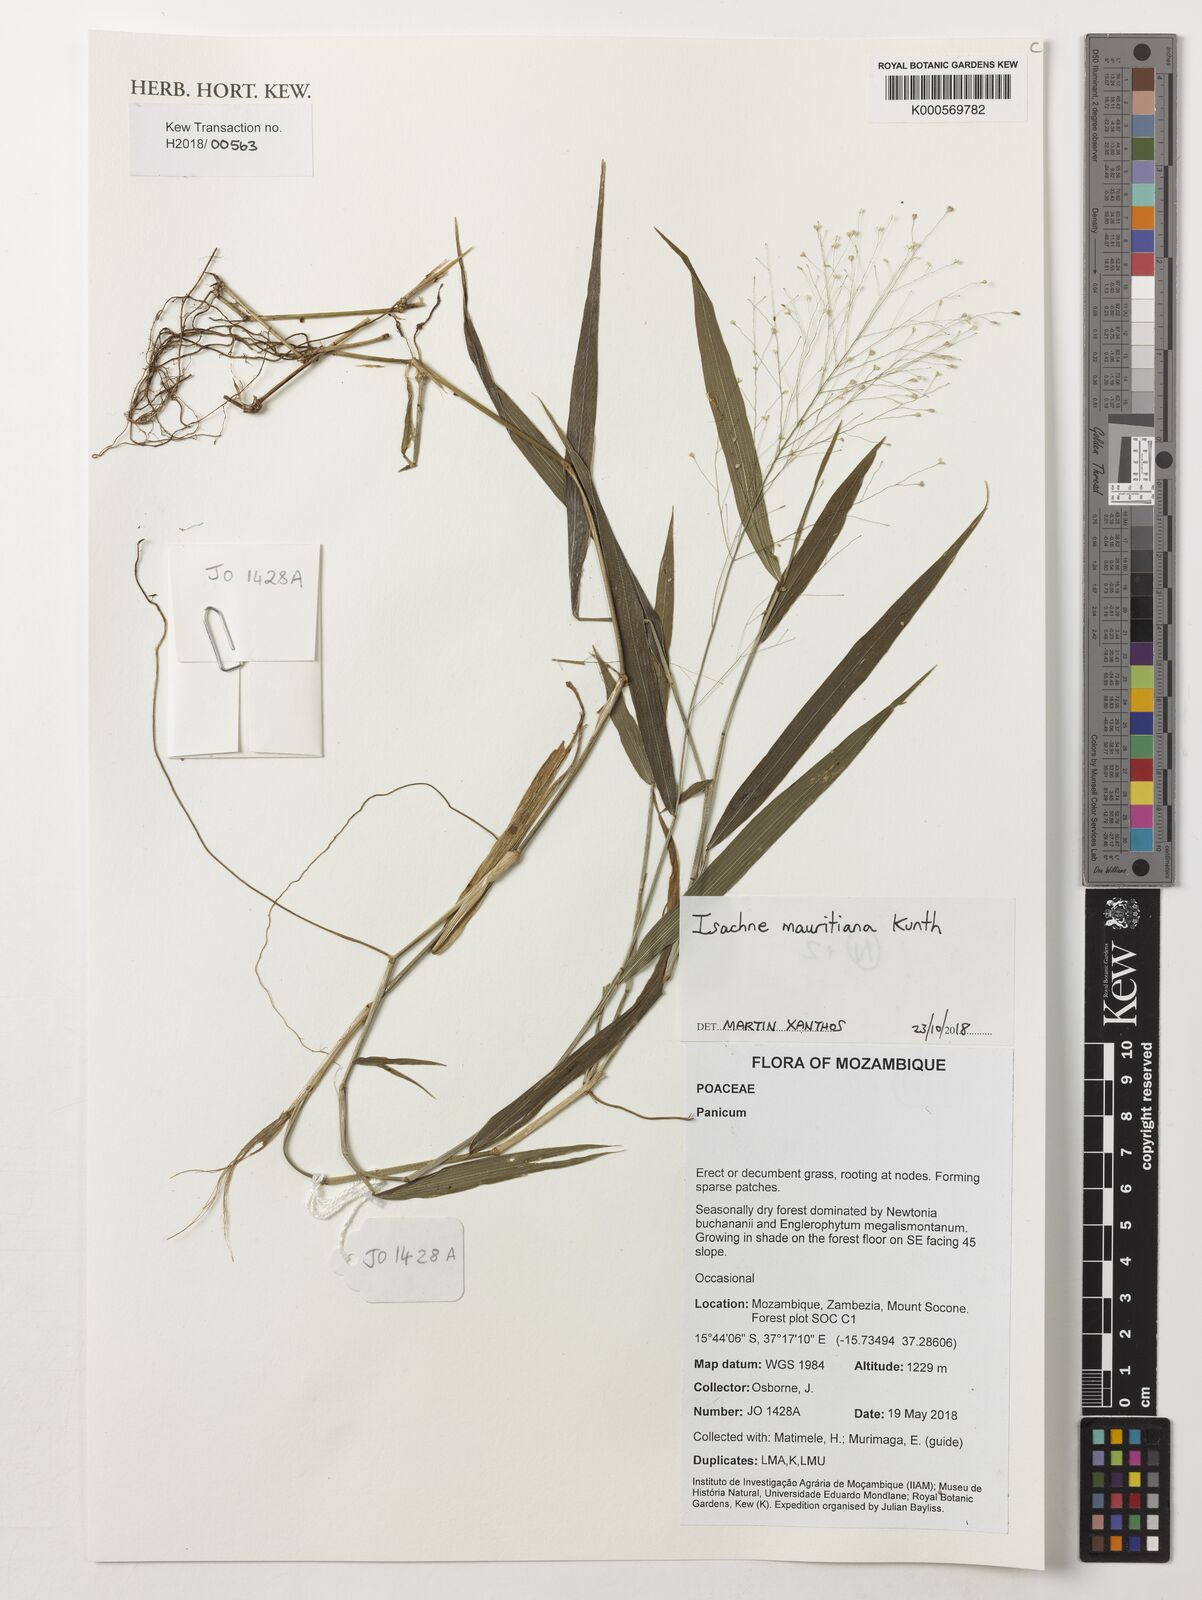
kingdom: Plantae
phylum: Tracheophyta
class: Liliopsida
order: Poales
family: Poaceae
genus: Isachne
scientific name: Isachne mauritiana
